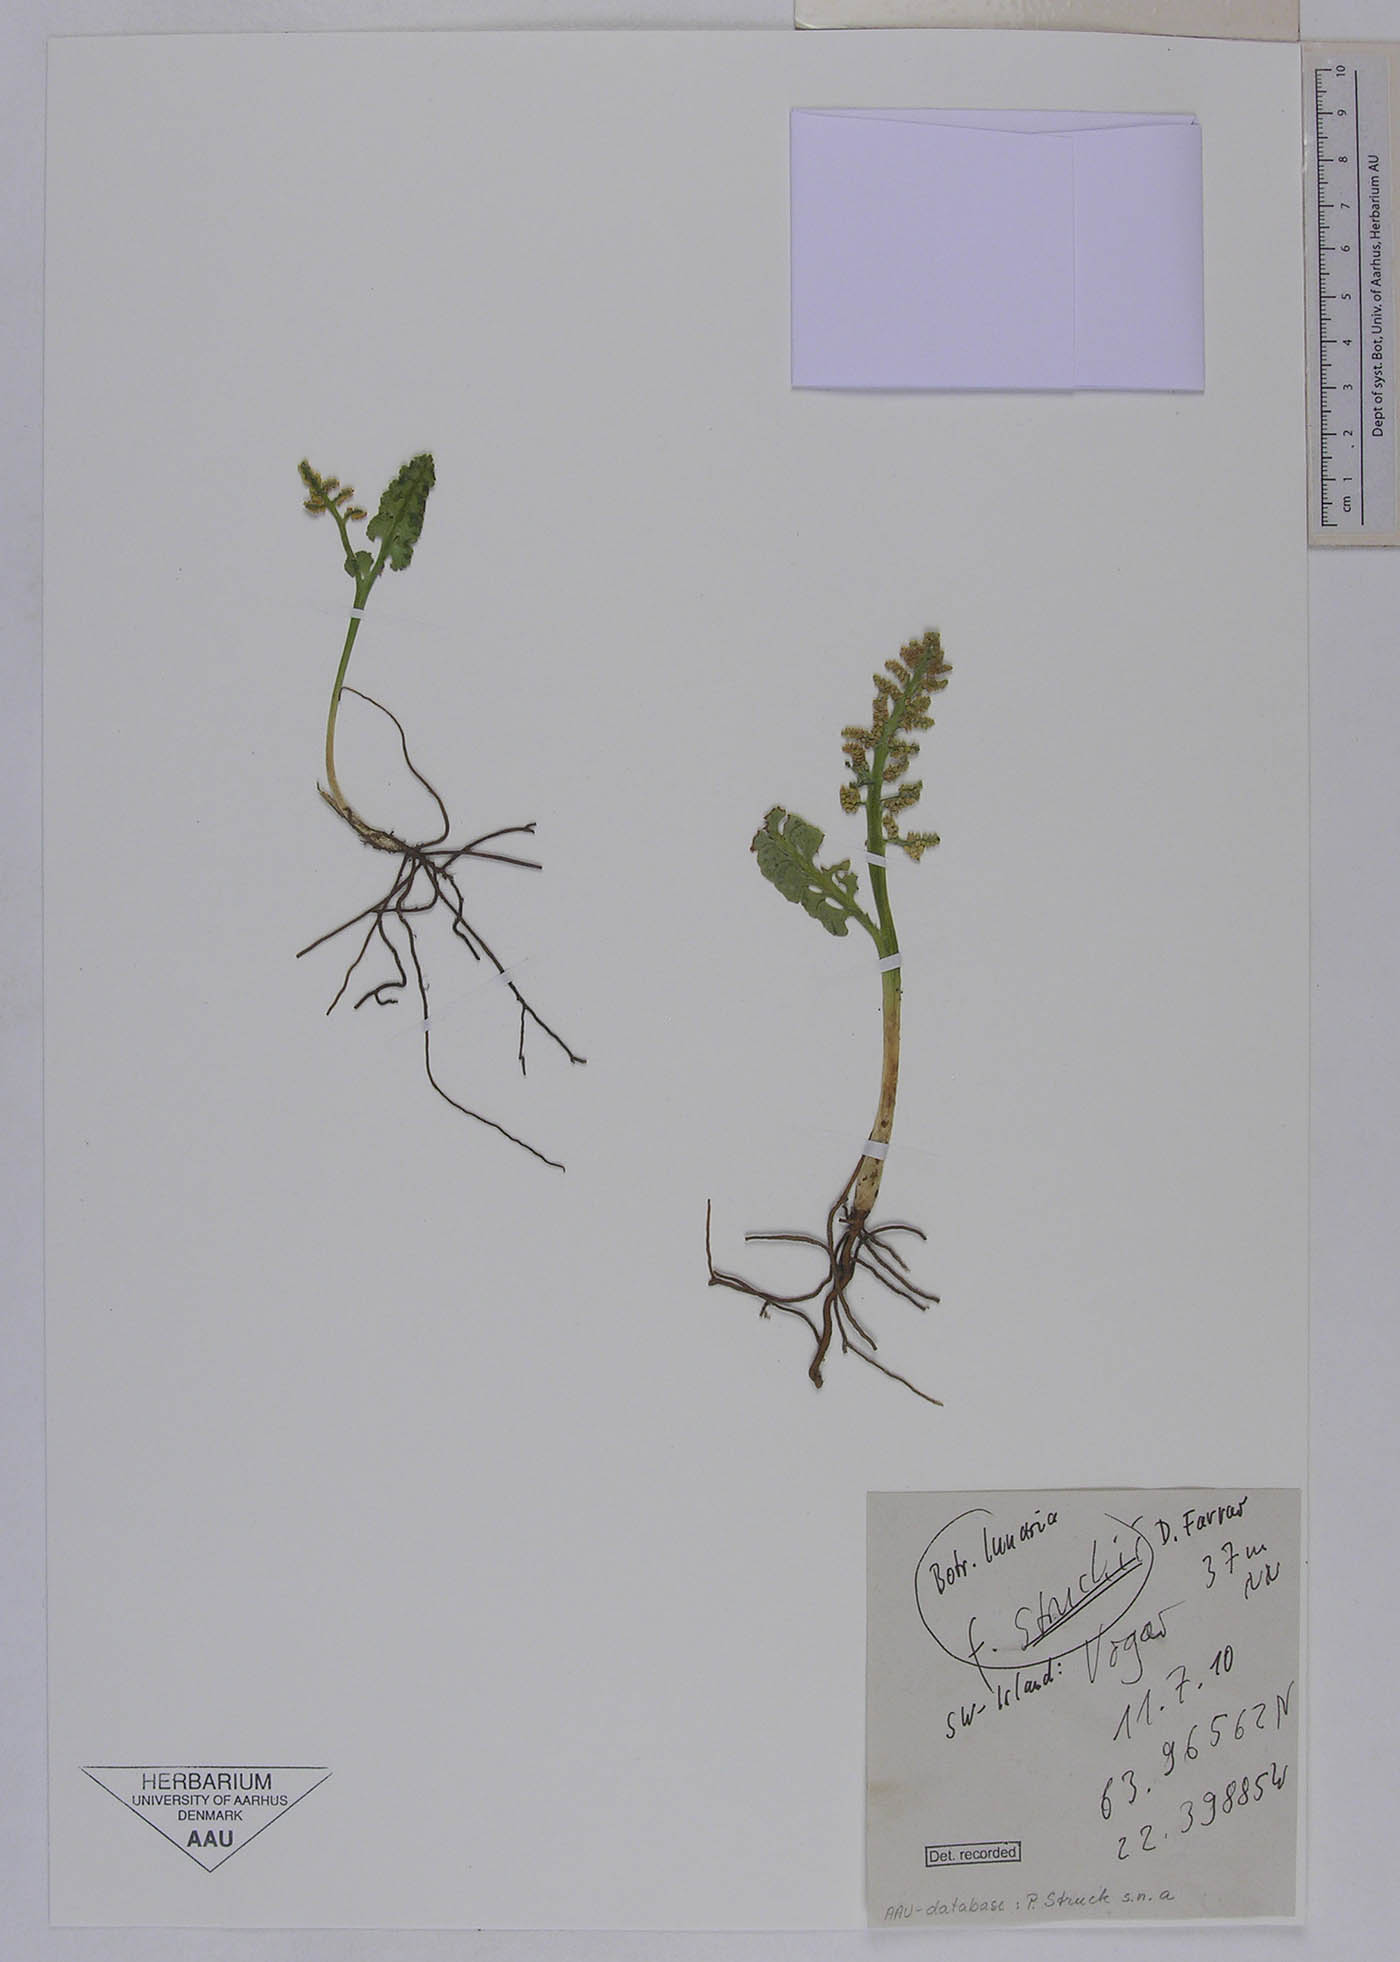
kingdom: Plantae
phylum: Tracheophyta
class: Polypodiopsida
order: Ophioglossales
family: Ophioglossaceae
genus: Botrychium
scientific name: Botrychium lunaria
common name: Moonwort
